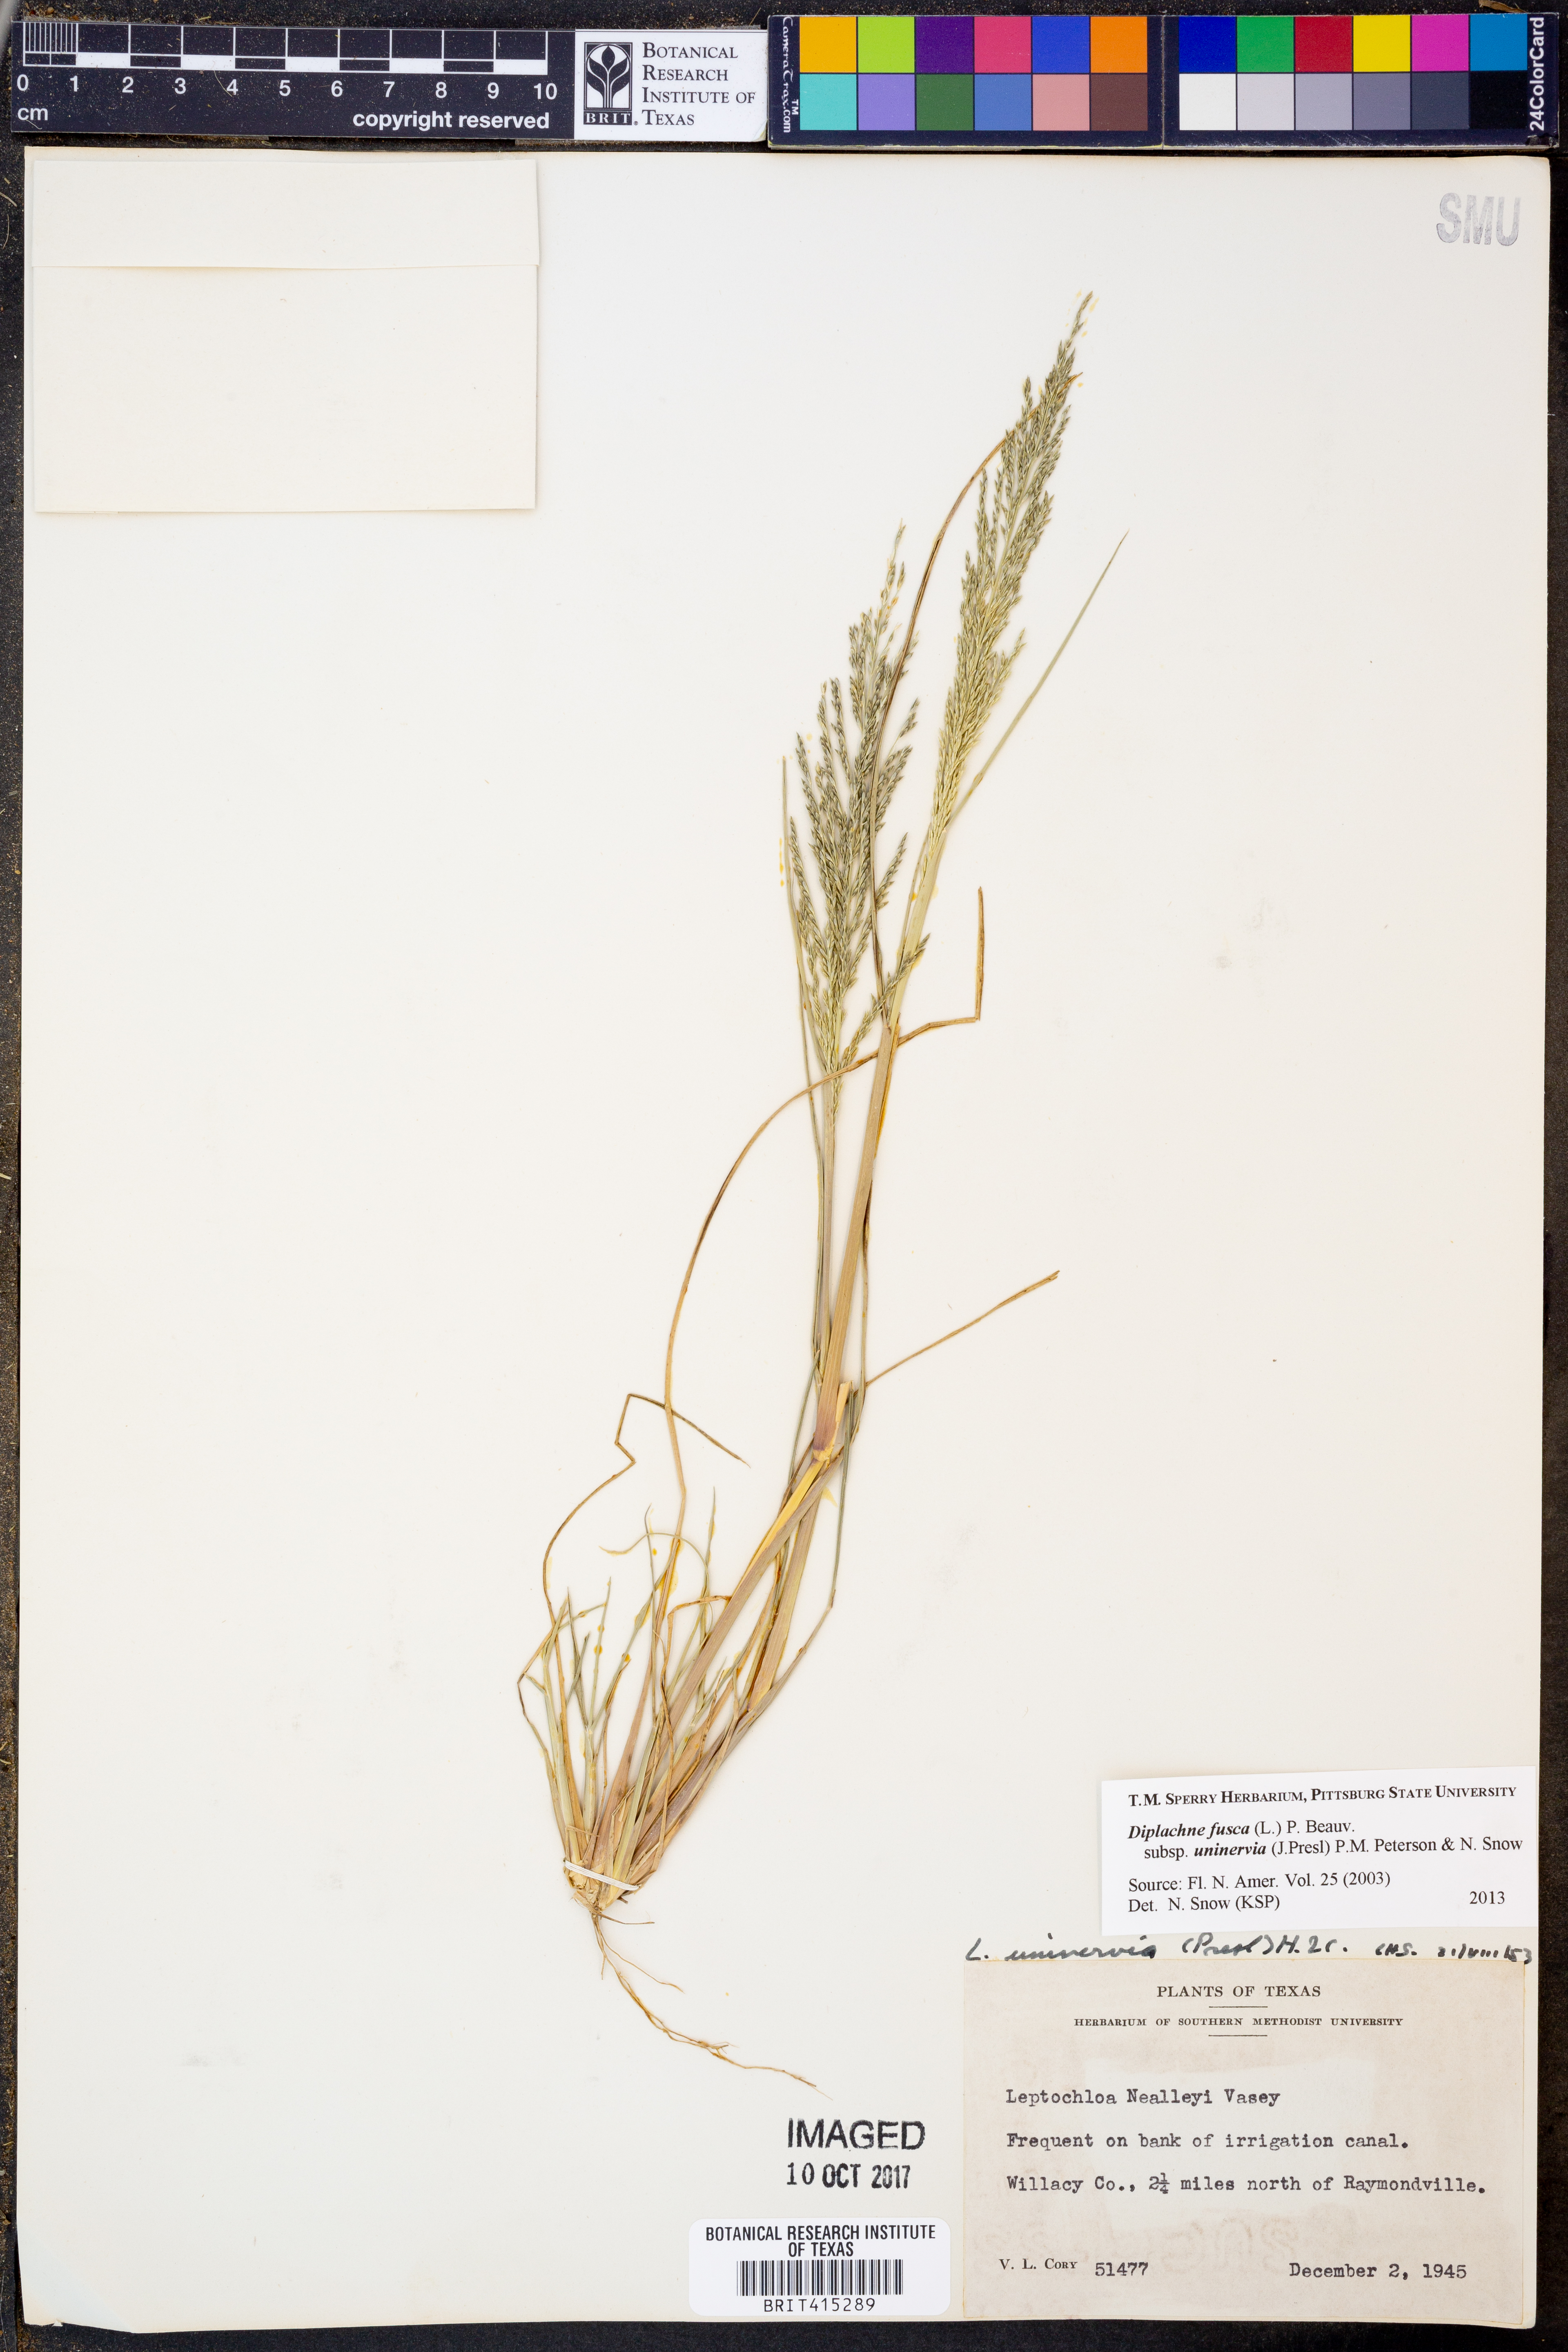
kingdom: Plantae
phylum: Tracheophyta
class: Liliopsida
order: Poales
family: Poaceae
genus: Diplachne
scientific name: Diplachne fusca
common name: Brown beetle grass
